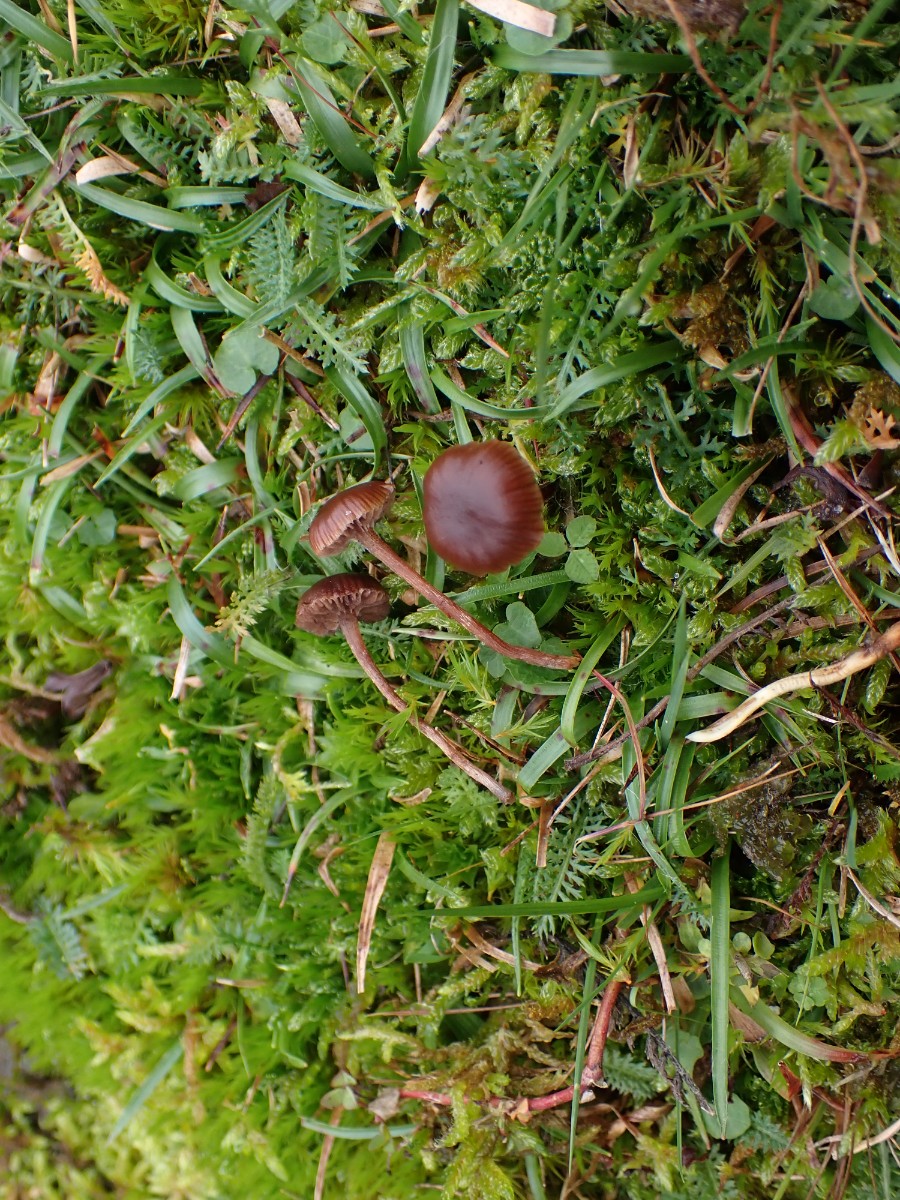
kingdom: Fungi
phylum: Basidiomycota
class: Agaricomycetes
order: Agaricales
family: Strophariaceae
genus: Deconica
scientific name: Deconica montana
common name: rødbrun stråhat
